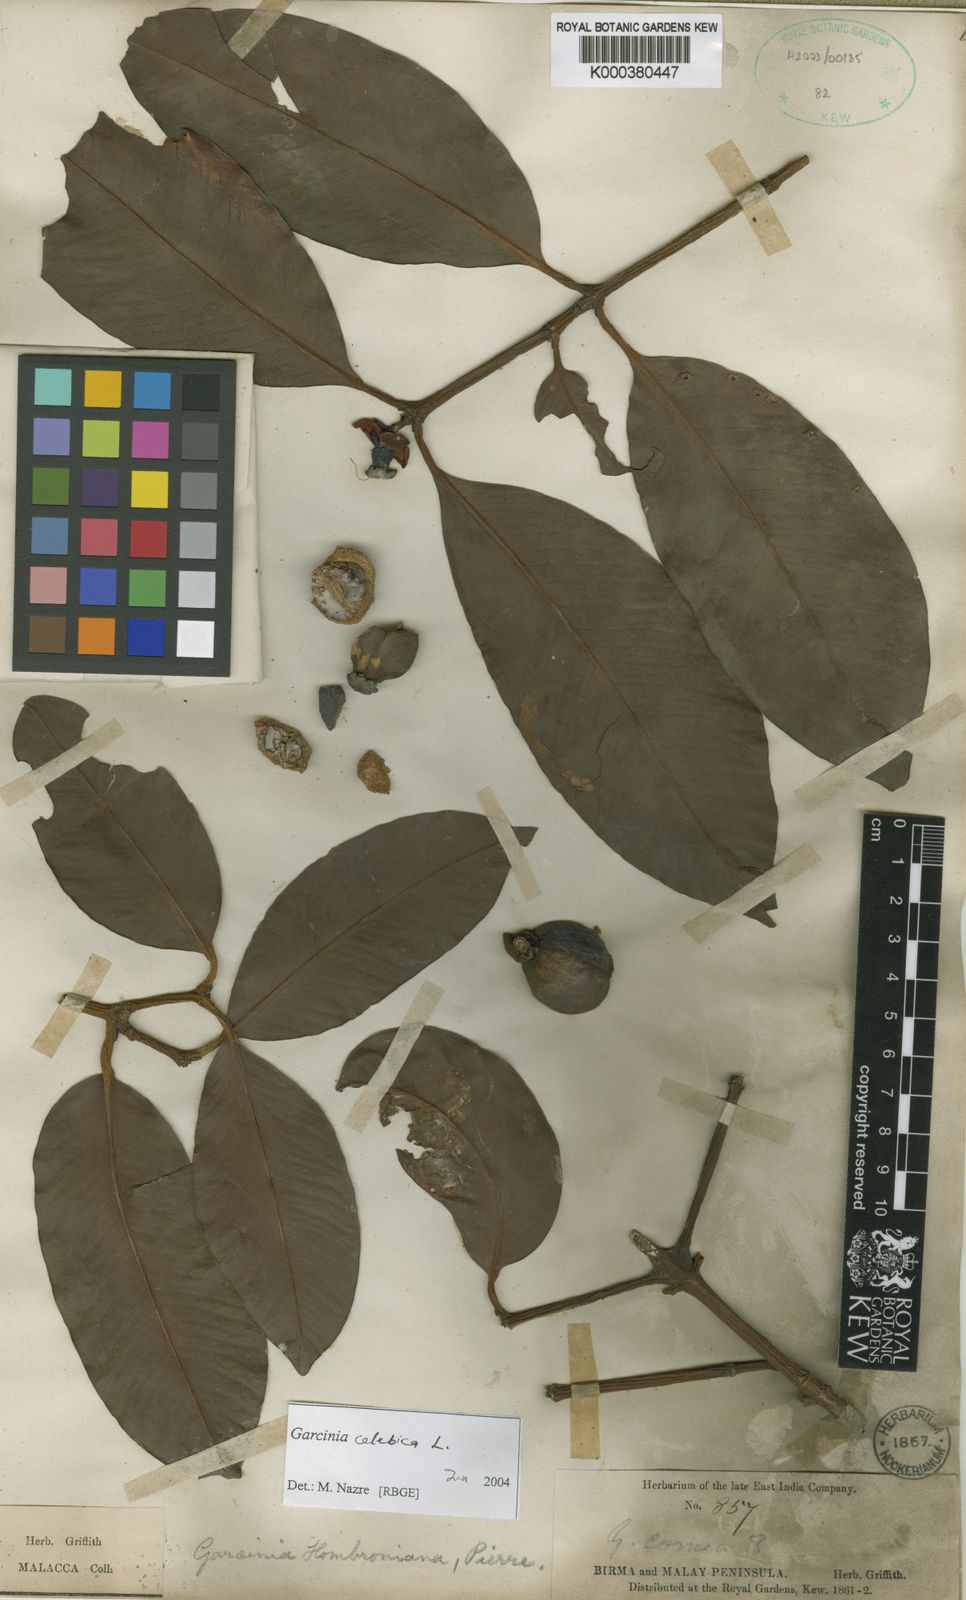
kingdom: Plantae
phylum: Tracheophyta
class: Magnoliopsida
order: Malpighiales
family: Clusiaceae
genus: Garcinia
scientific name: Garcinia celebica
